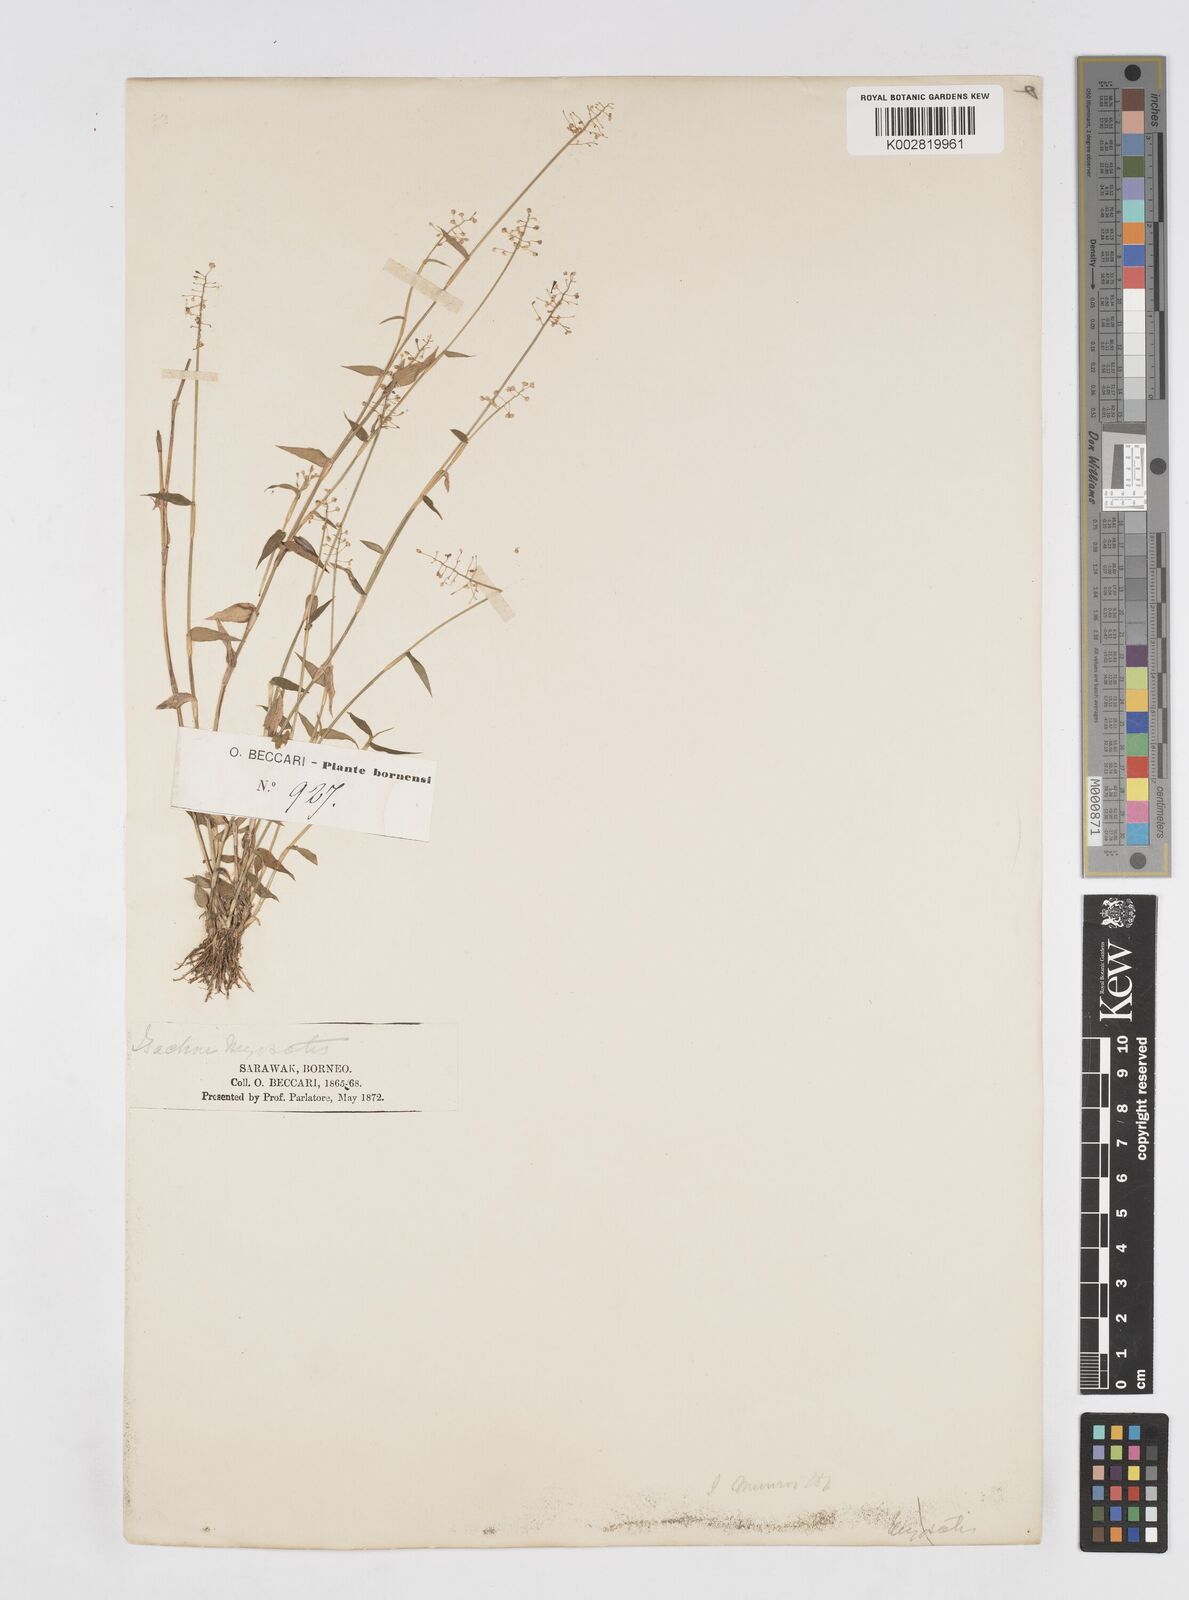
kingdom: Plantae
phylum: Tracheophyta
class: Liliopsida
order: Poales
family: Poaceae
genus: Isachne
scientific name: Isachne confusa
